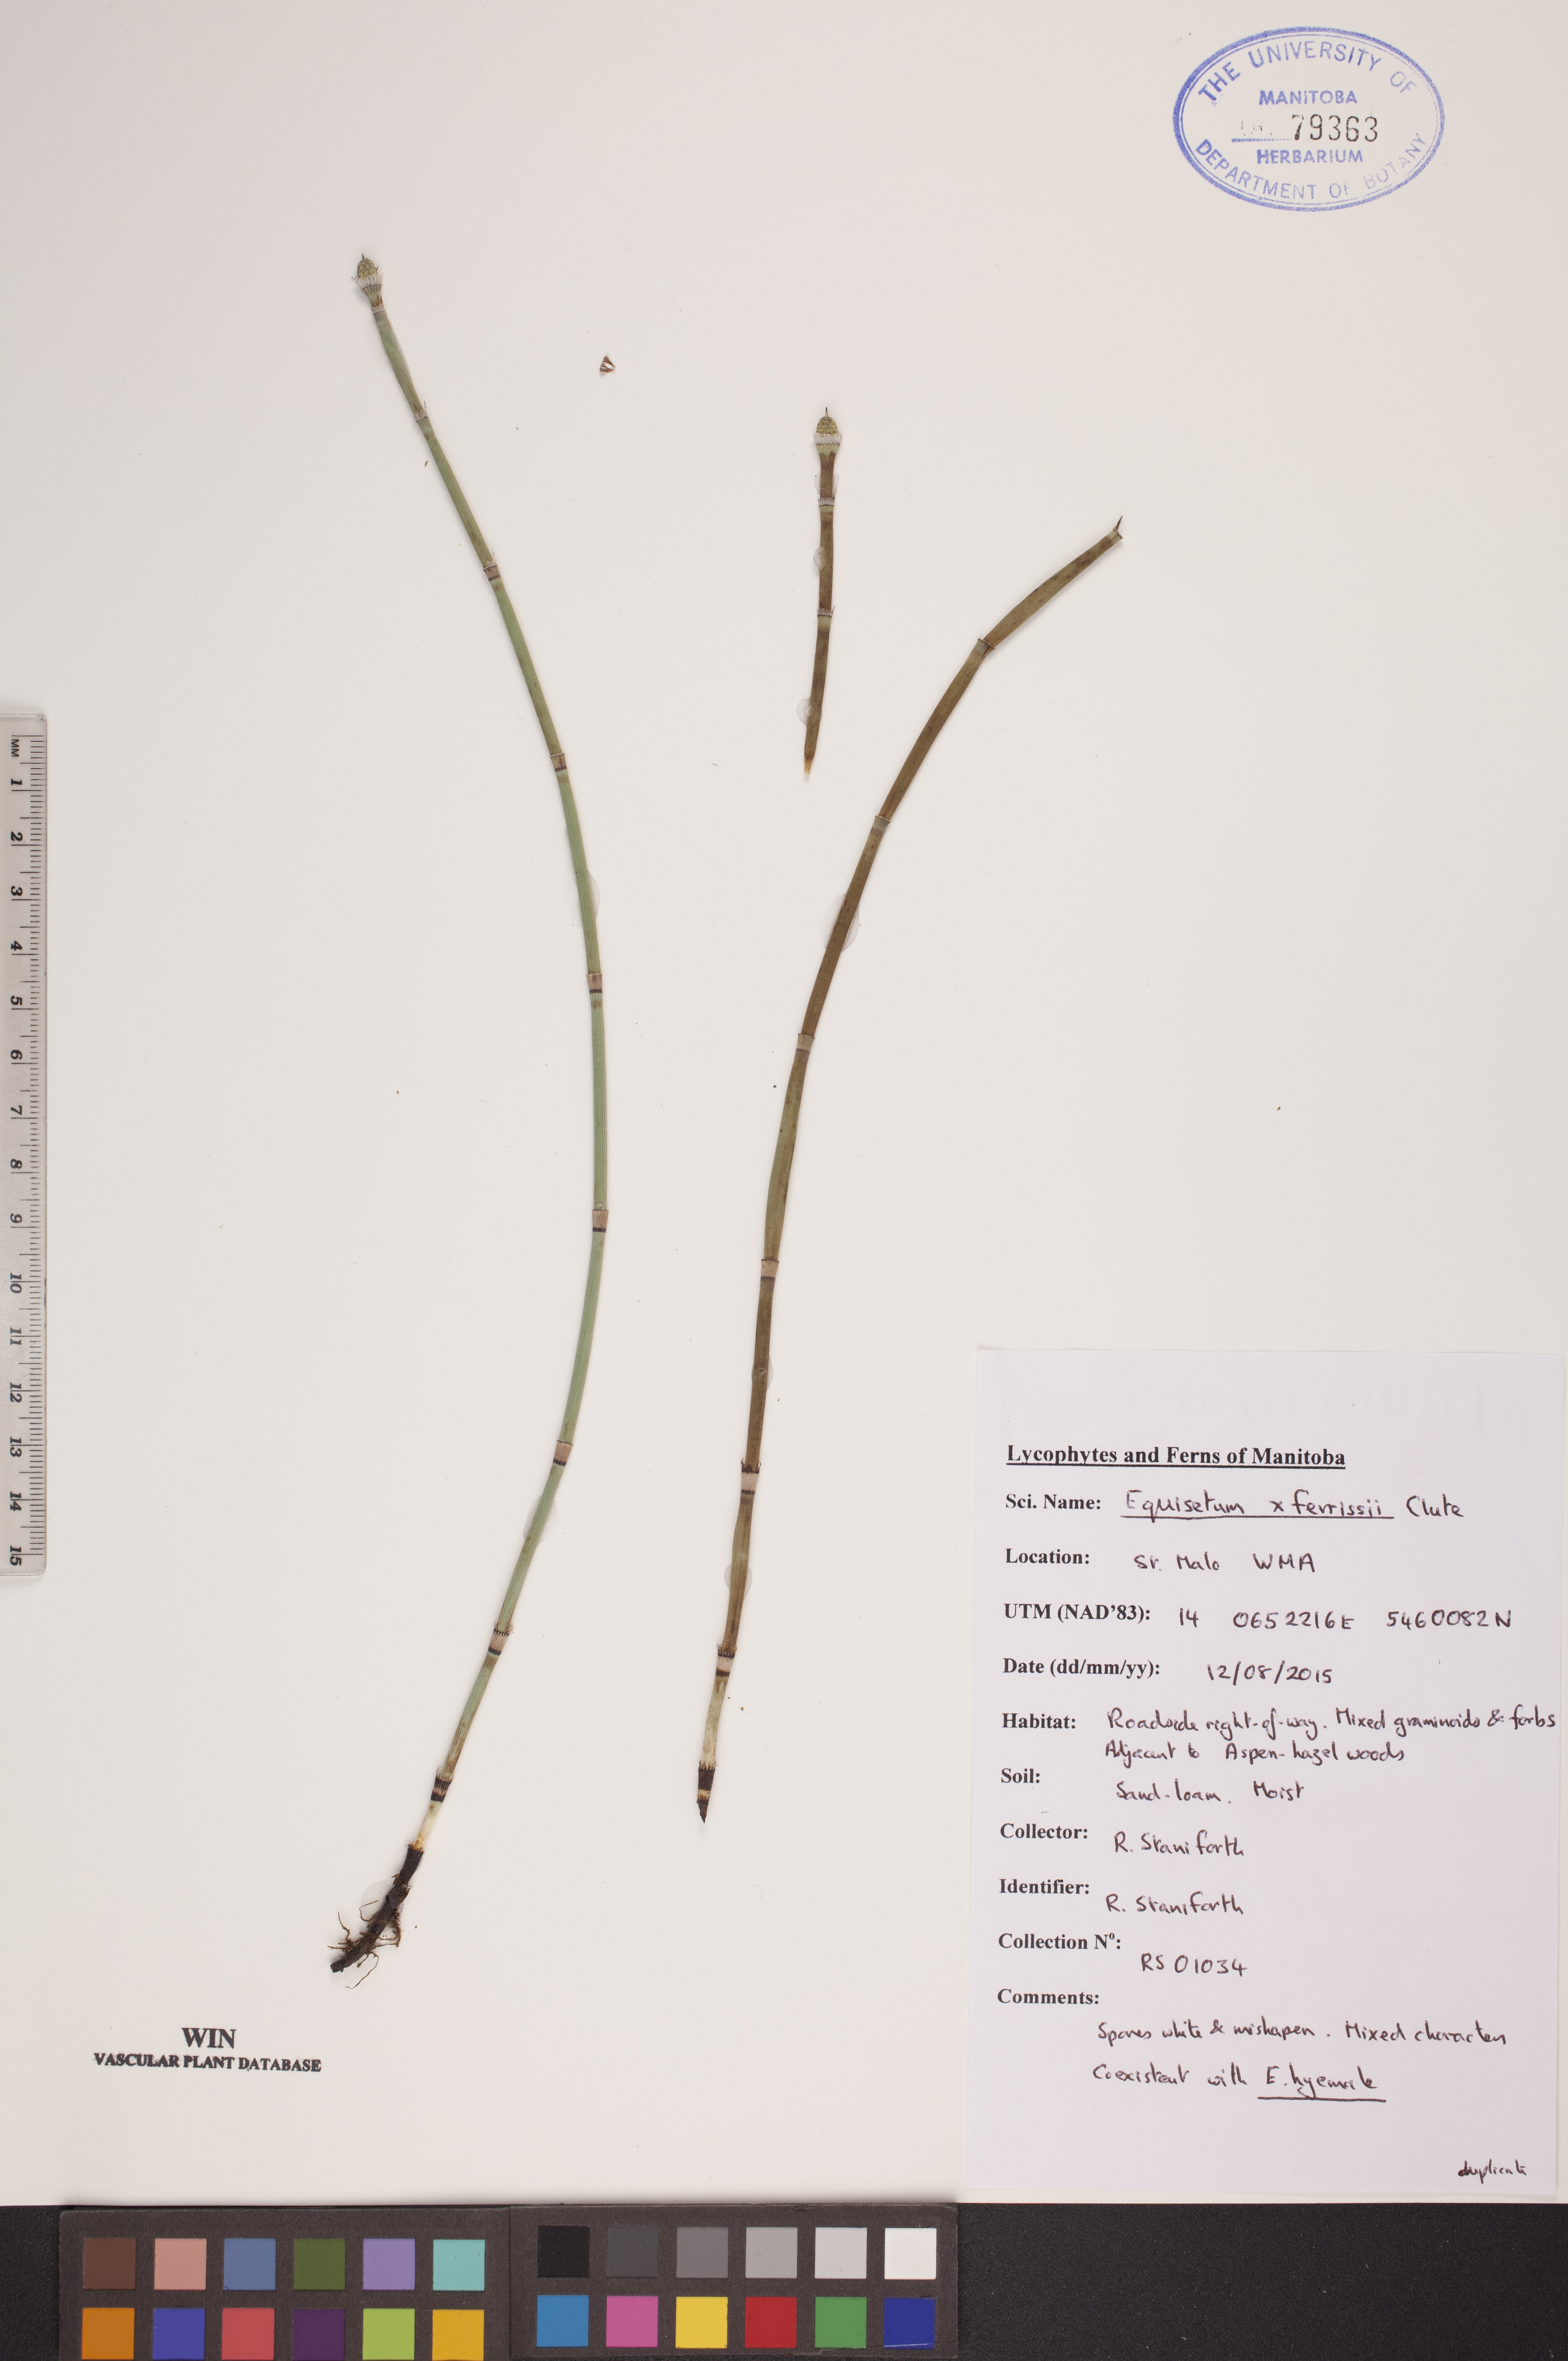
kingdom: Plantae
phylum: Tracheophyta
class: Polypodiopsida
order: Equisetales
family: Equisetaceae
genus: Equisetum
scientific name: Equisetum ferrissii
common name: Ferriss' horsetail
